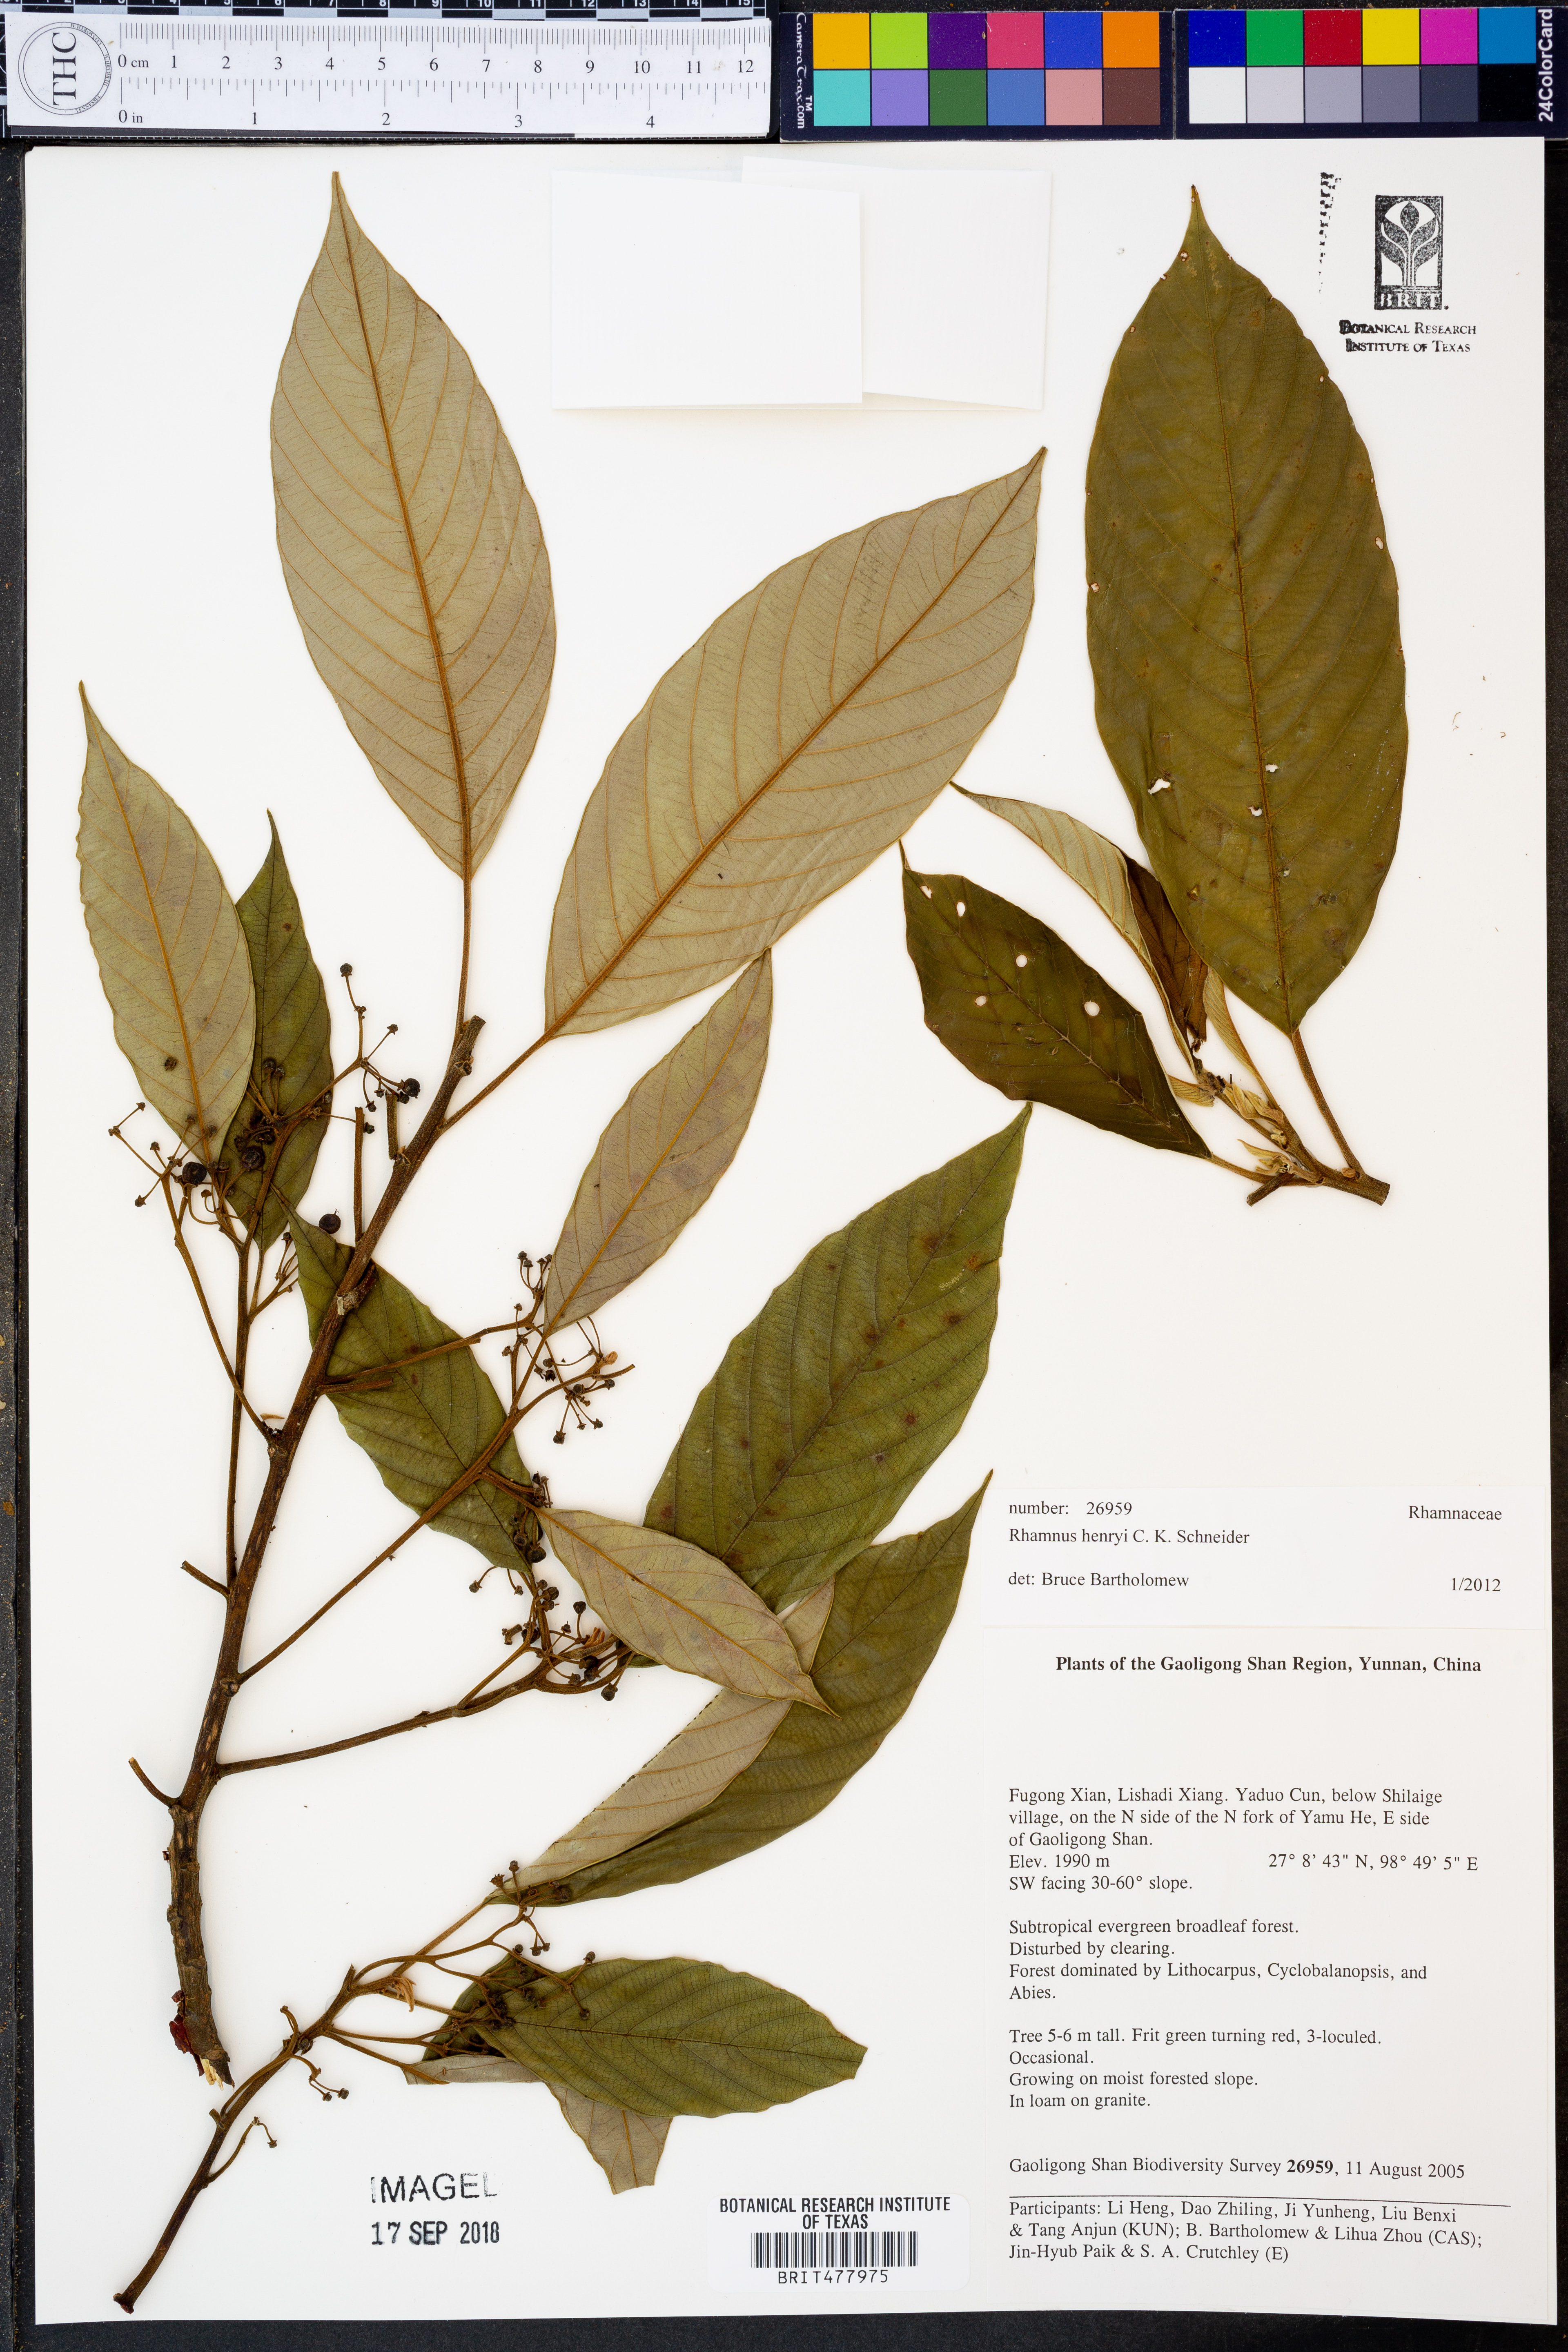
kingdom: Plantae
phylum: Tracheophyta
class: Magnoliopsida
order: Rosales
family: Rhamnaceae
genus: Frangula
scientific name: Frangula henryi
